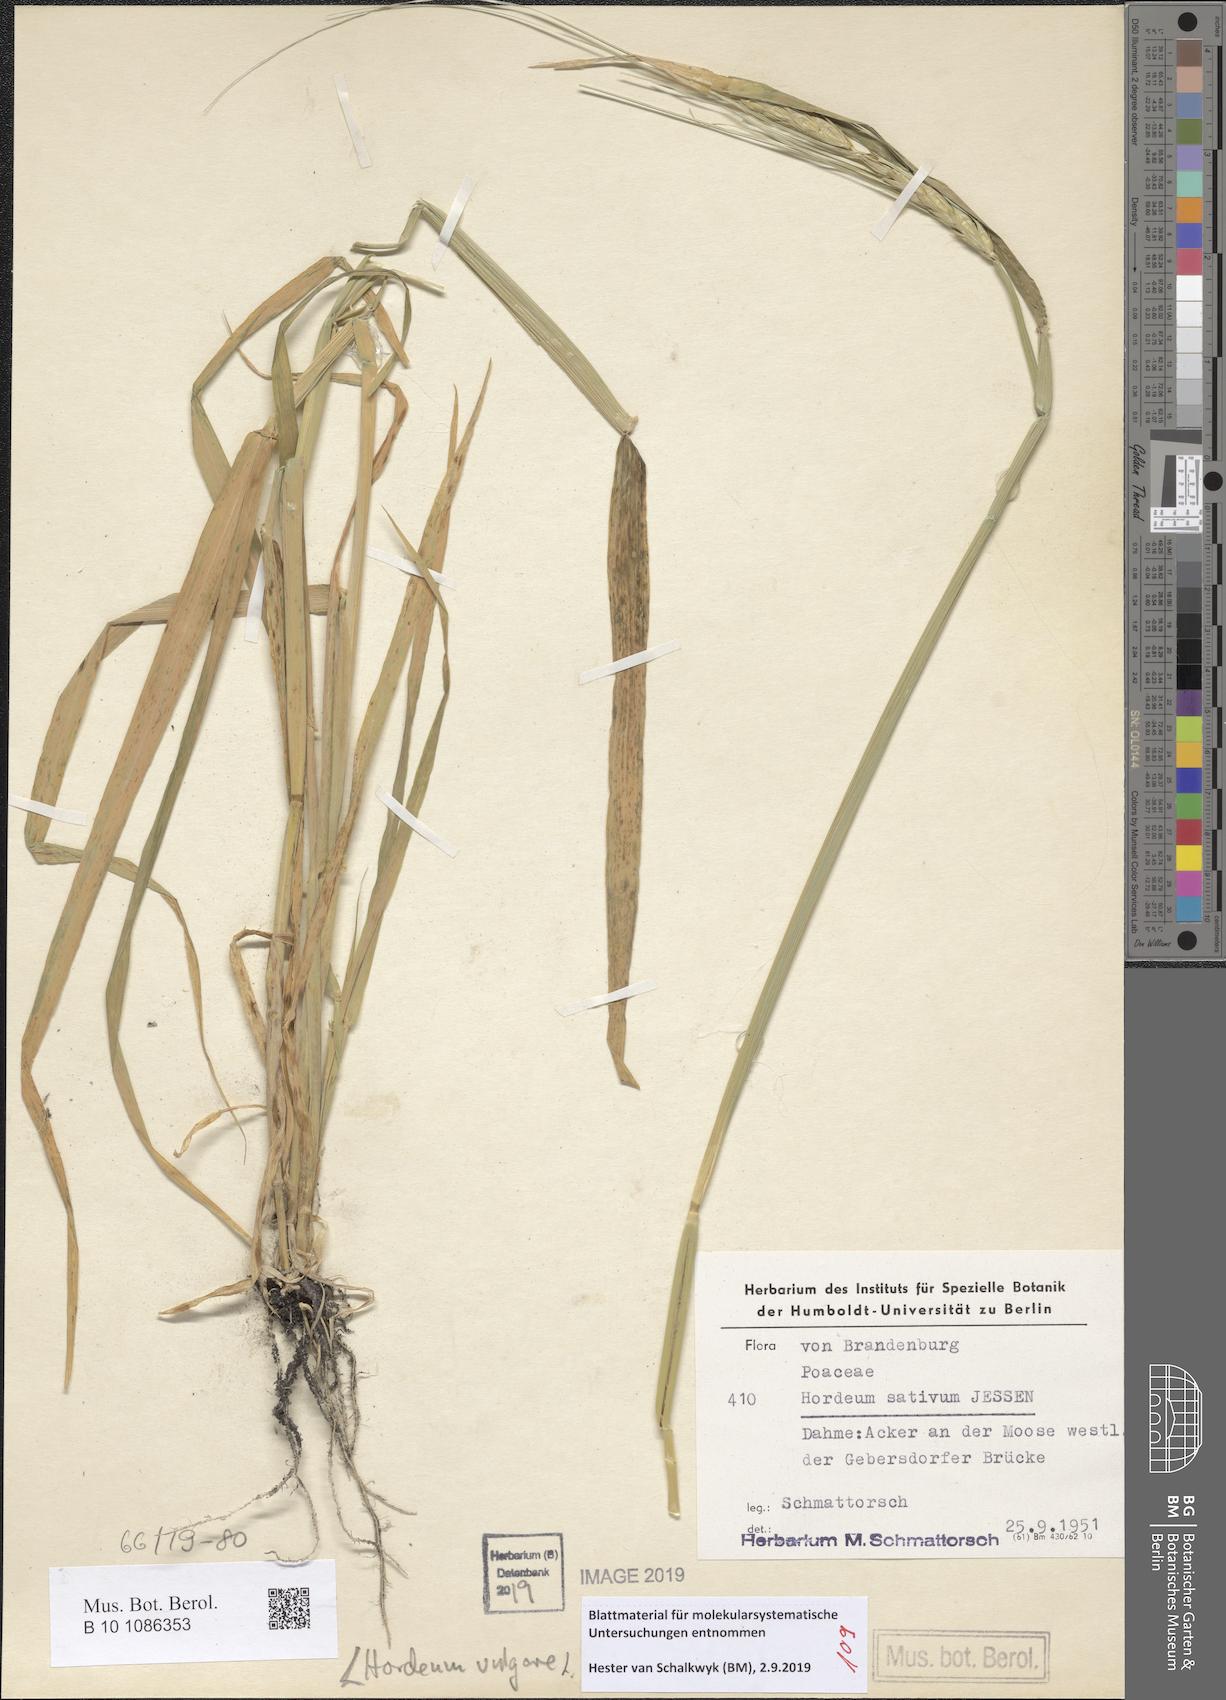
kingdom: Plantae
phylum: Tracheophyta
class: Liliopsida
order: Poales
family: Poaceae
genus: Hordeum
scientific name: Hordeum vulgare
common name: Common barley
